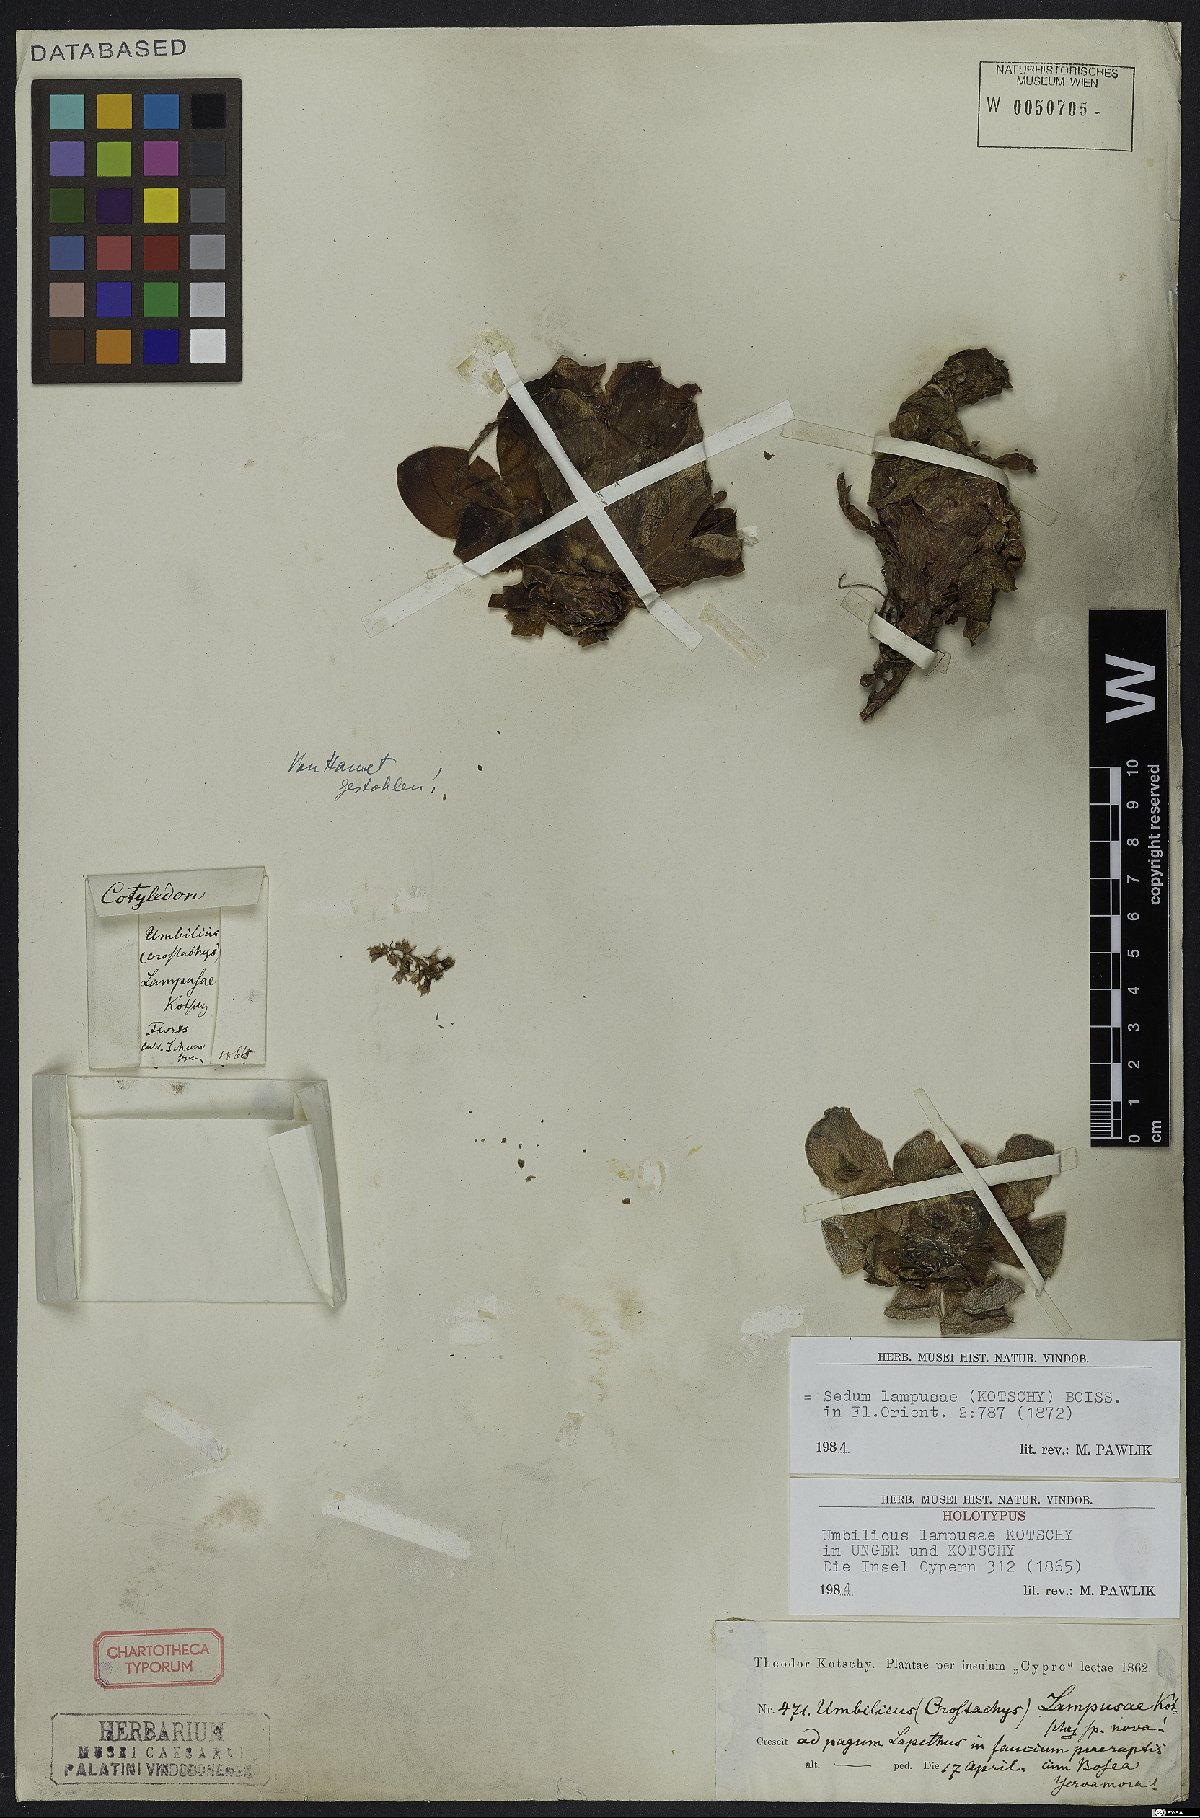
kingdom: Plantae
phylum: Tracheophyta
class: Magnoliopsida
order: Saxifragales
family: Crassulaceae
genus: Sedum
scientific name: Sedum lampusae
